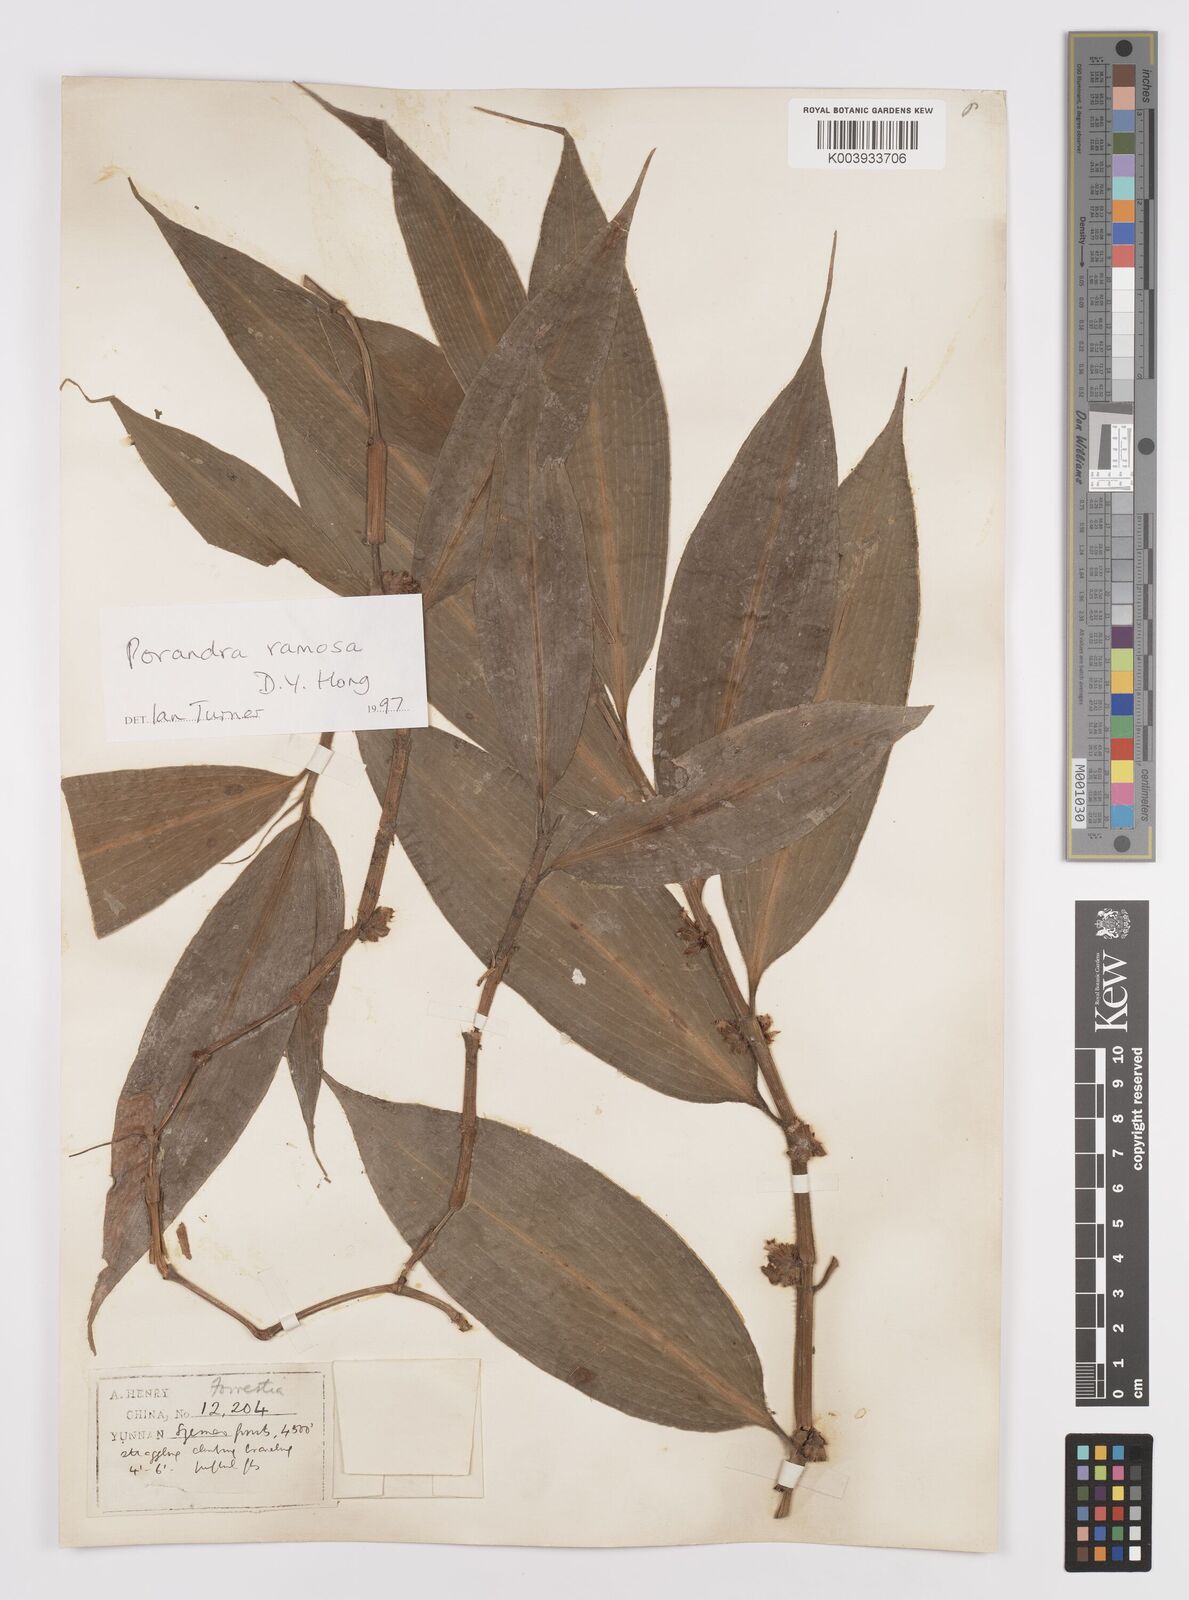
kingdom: Plantae
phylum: Tracheophyta
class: Liliopsida
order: Commelinales
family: Commelinaceae
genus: Porandra
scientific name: Porandra ramosa
